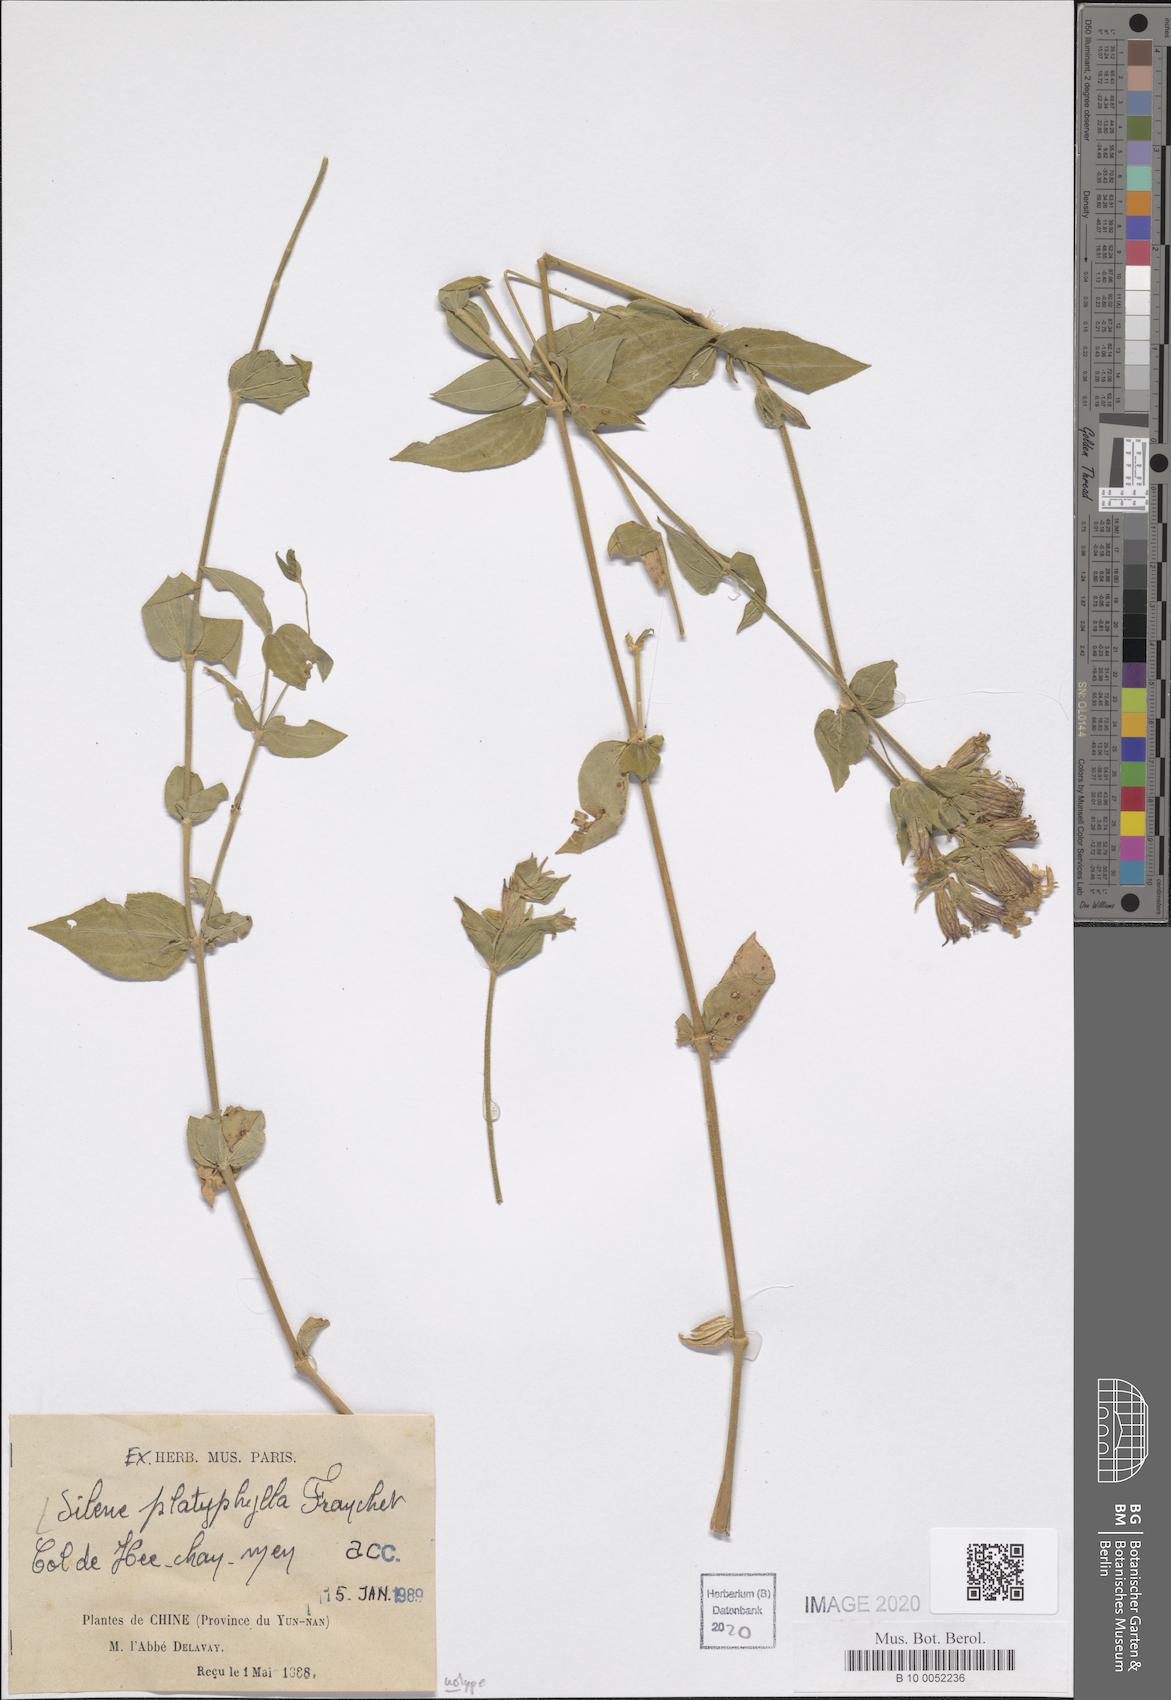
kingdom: Plantae
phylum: Tracheophyta
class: Magnoliopsida
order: Caryophyllales
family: Caryophyllaceae
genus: Silene
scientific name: Silene platyphylla
